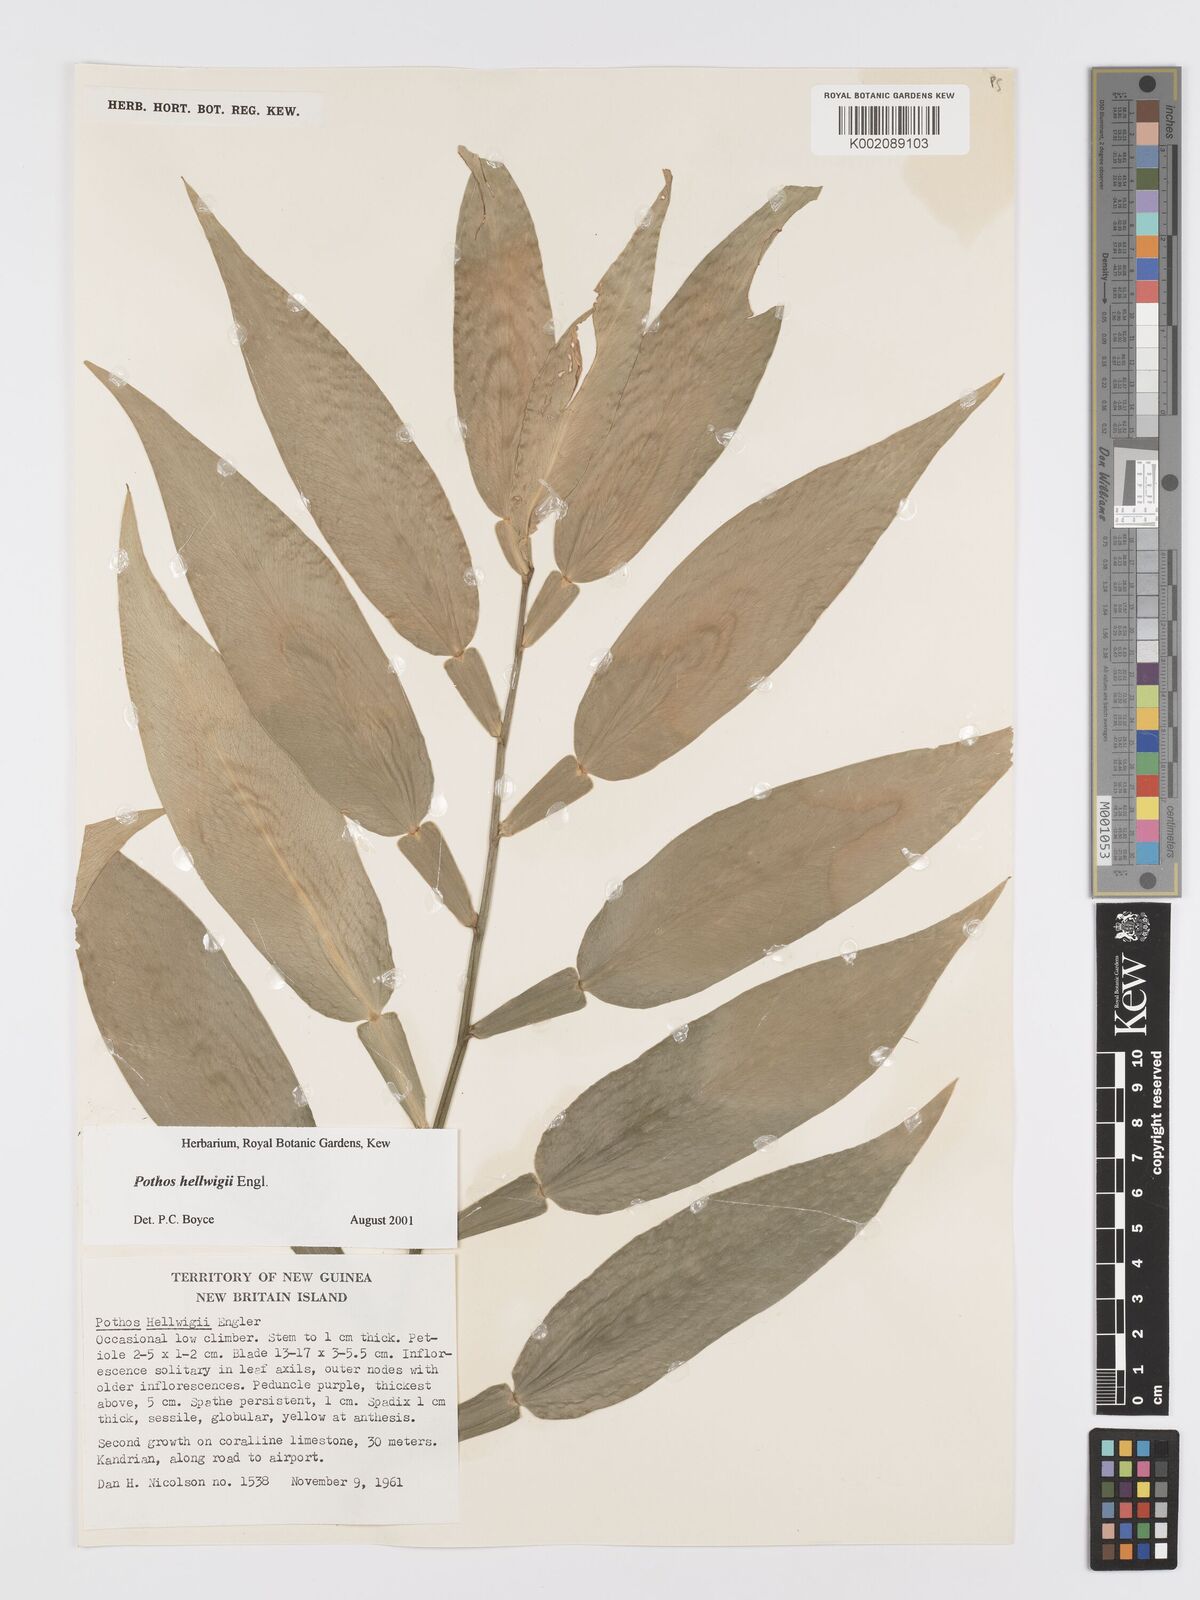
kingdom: Plantae
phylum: Tracheophyta
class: Liliopsida
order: Alismatales
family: Araceae
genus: Pothos
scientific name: Pothos hellwigii
